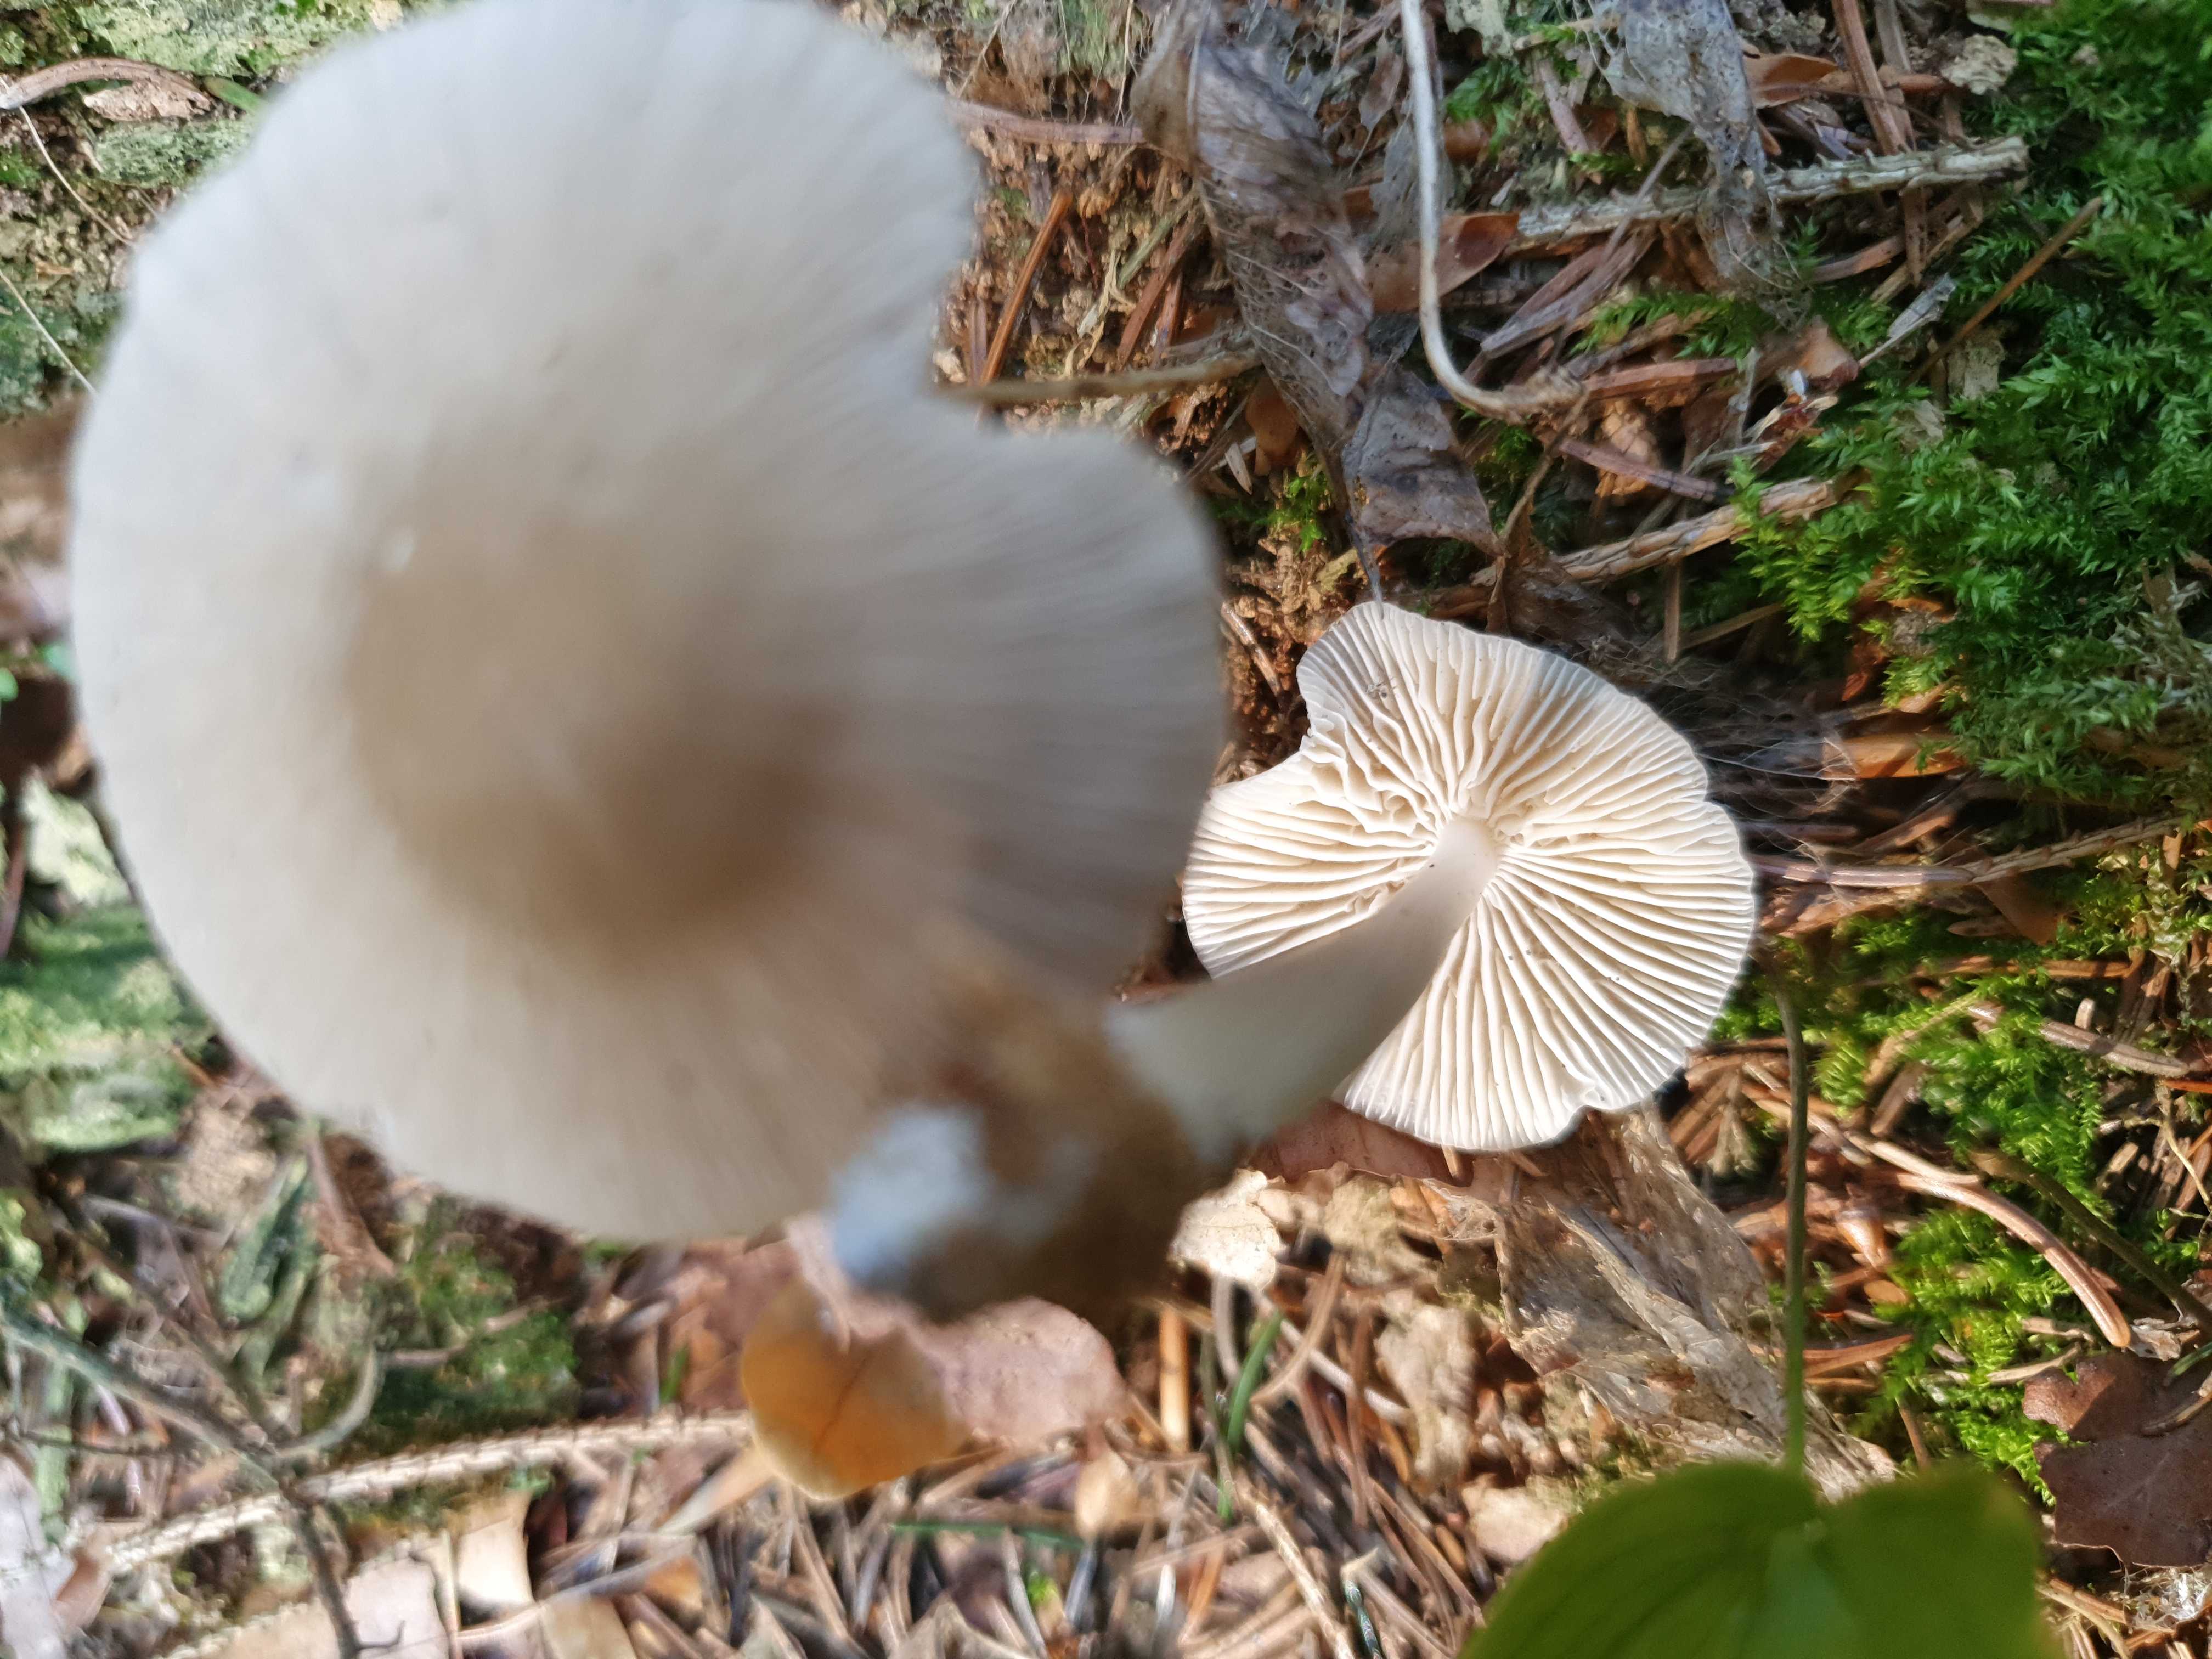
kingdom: Fungi
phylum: Basidiomycota
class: Agaricomycetes
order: Agaricales
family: Mycenaceae
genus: Mycena
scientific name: Mycena galericulata
